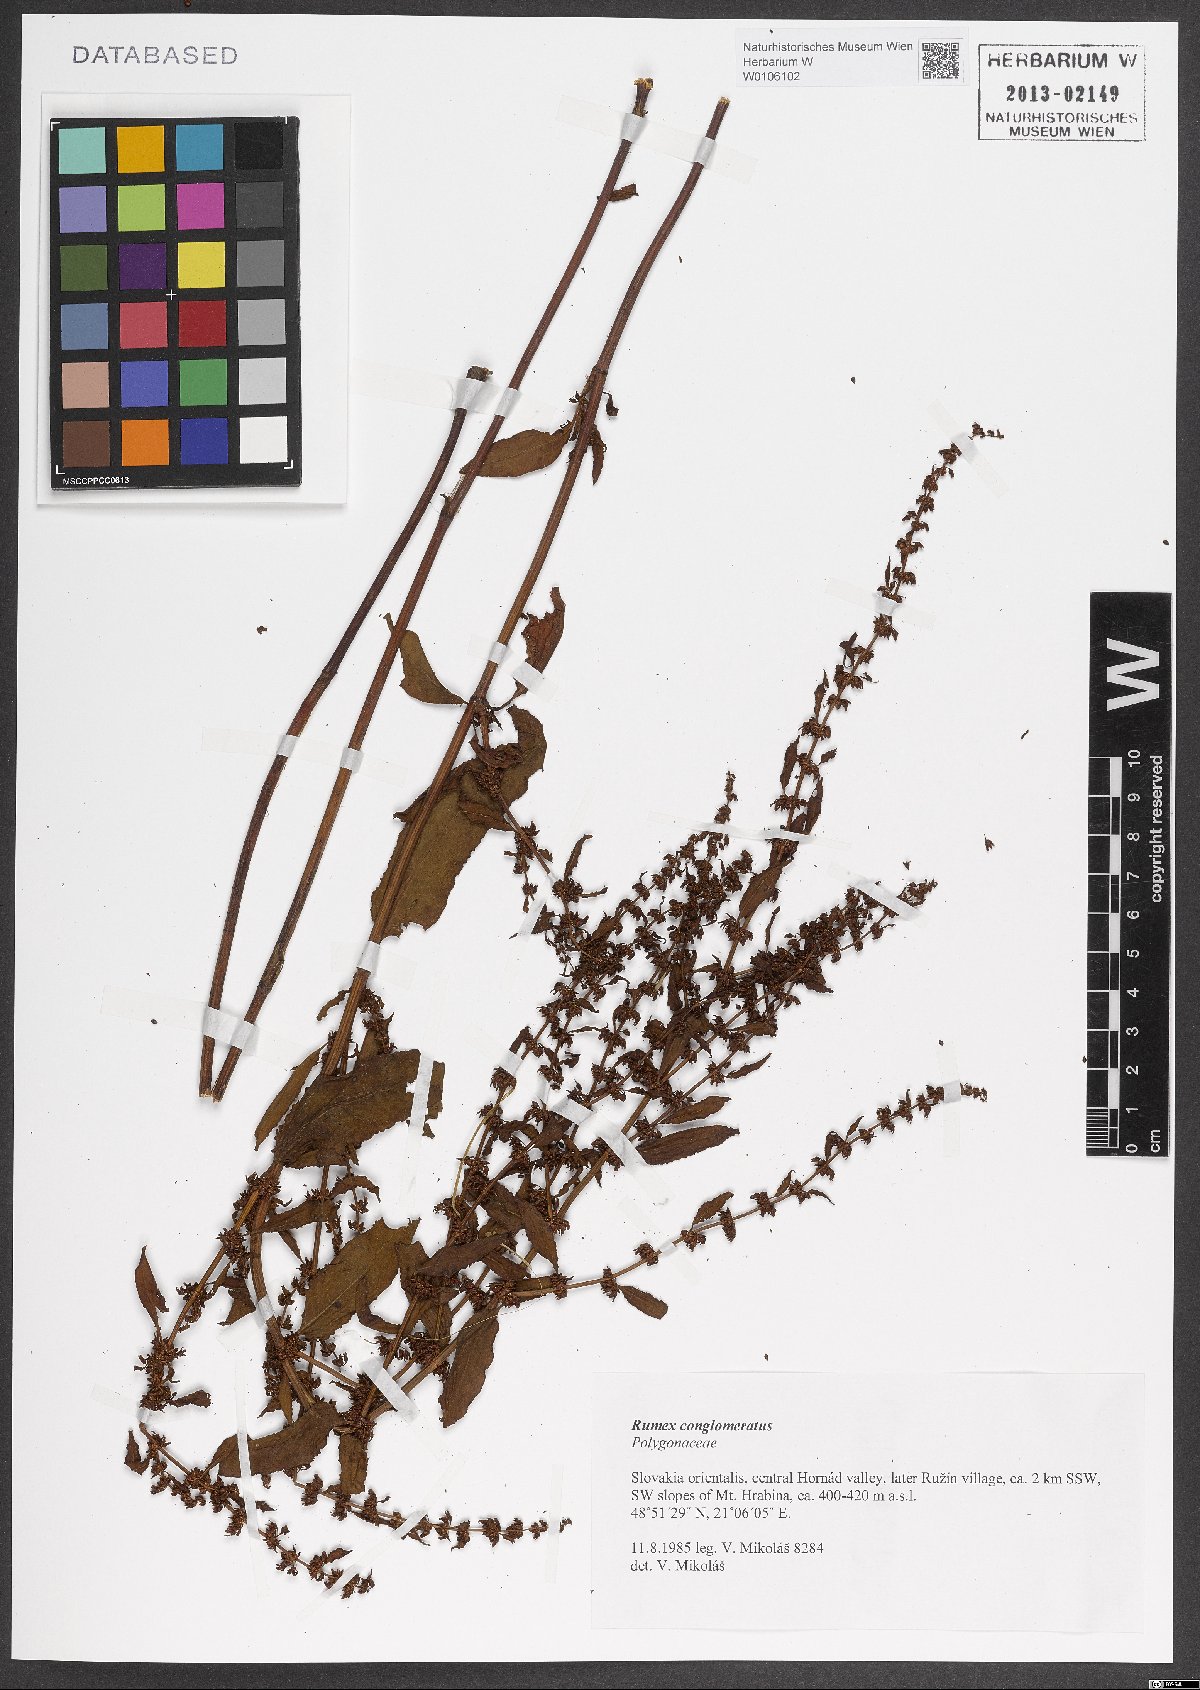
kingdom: Plantae
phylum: Tracheophyta
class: Magnoliopsida
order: Caryophyllales
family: Polygonaceae
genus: Rumex
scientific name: Rumex conglomeratus
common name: Clustered dock
